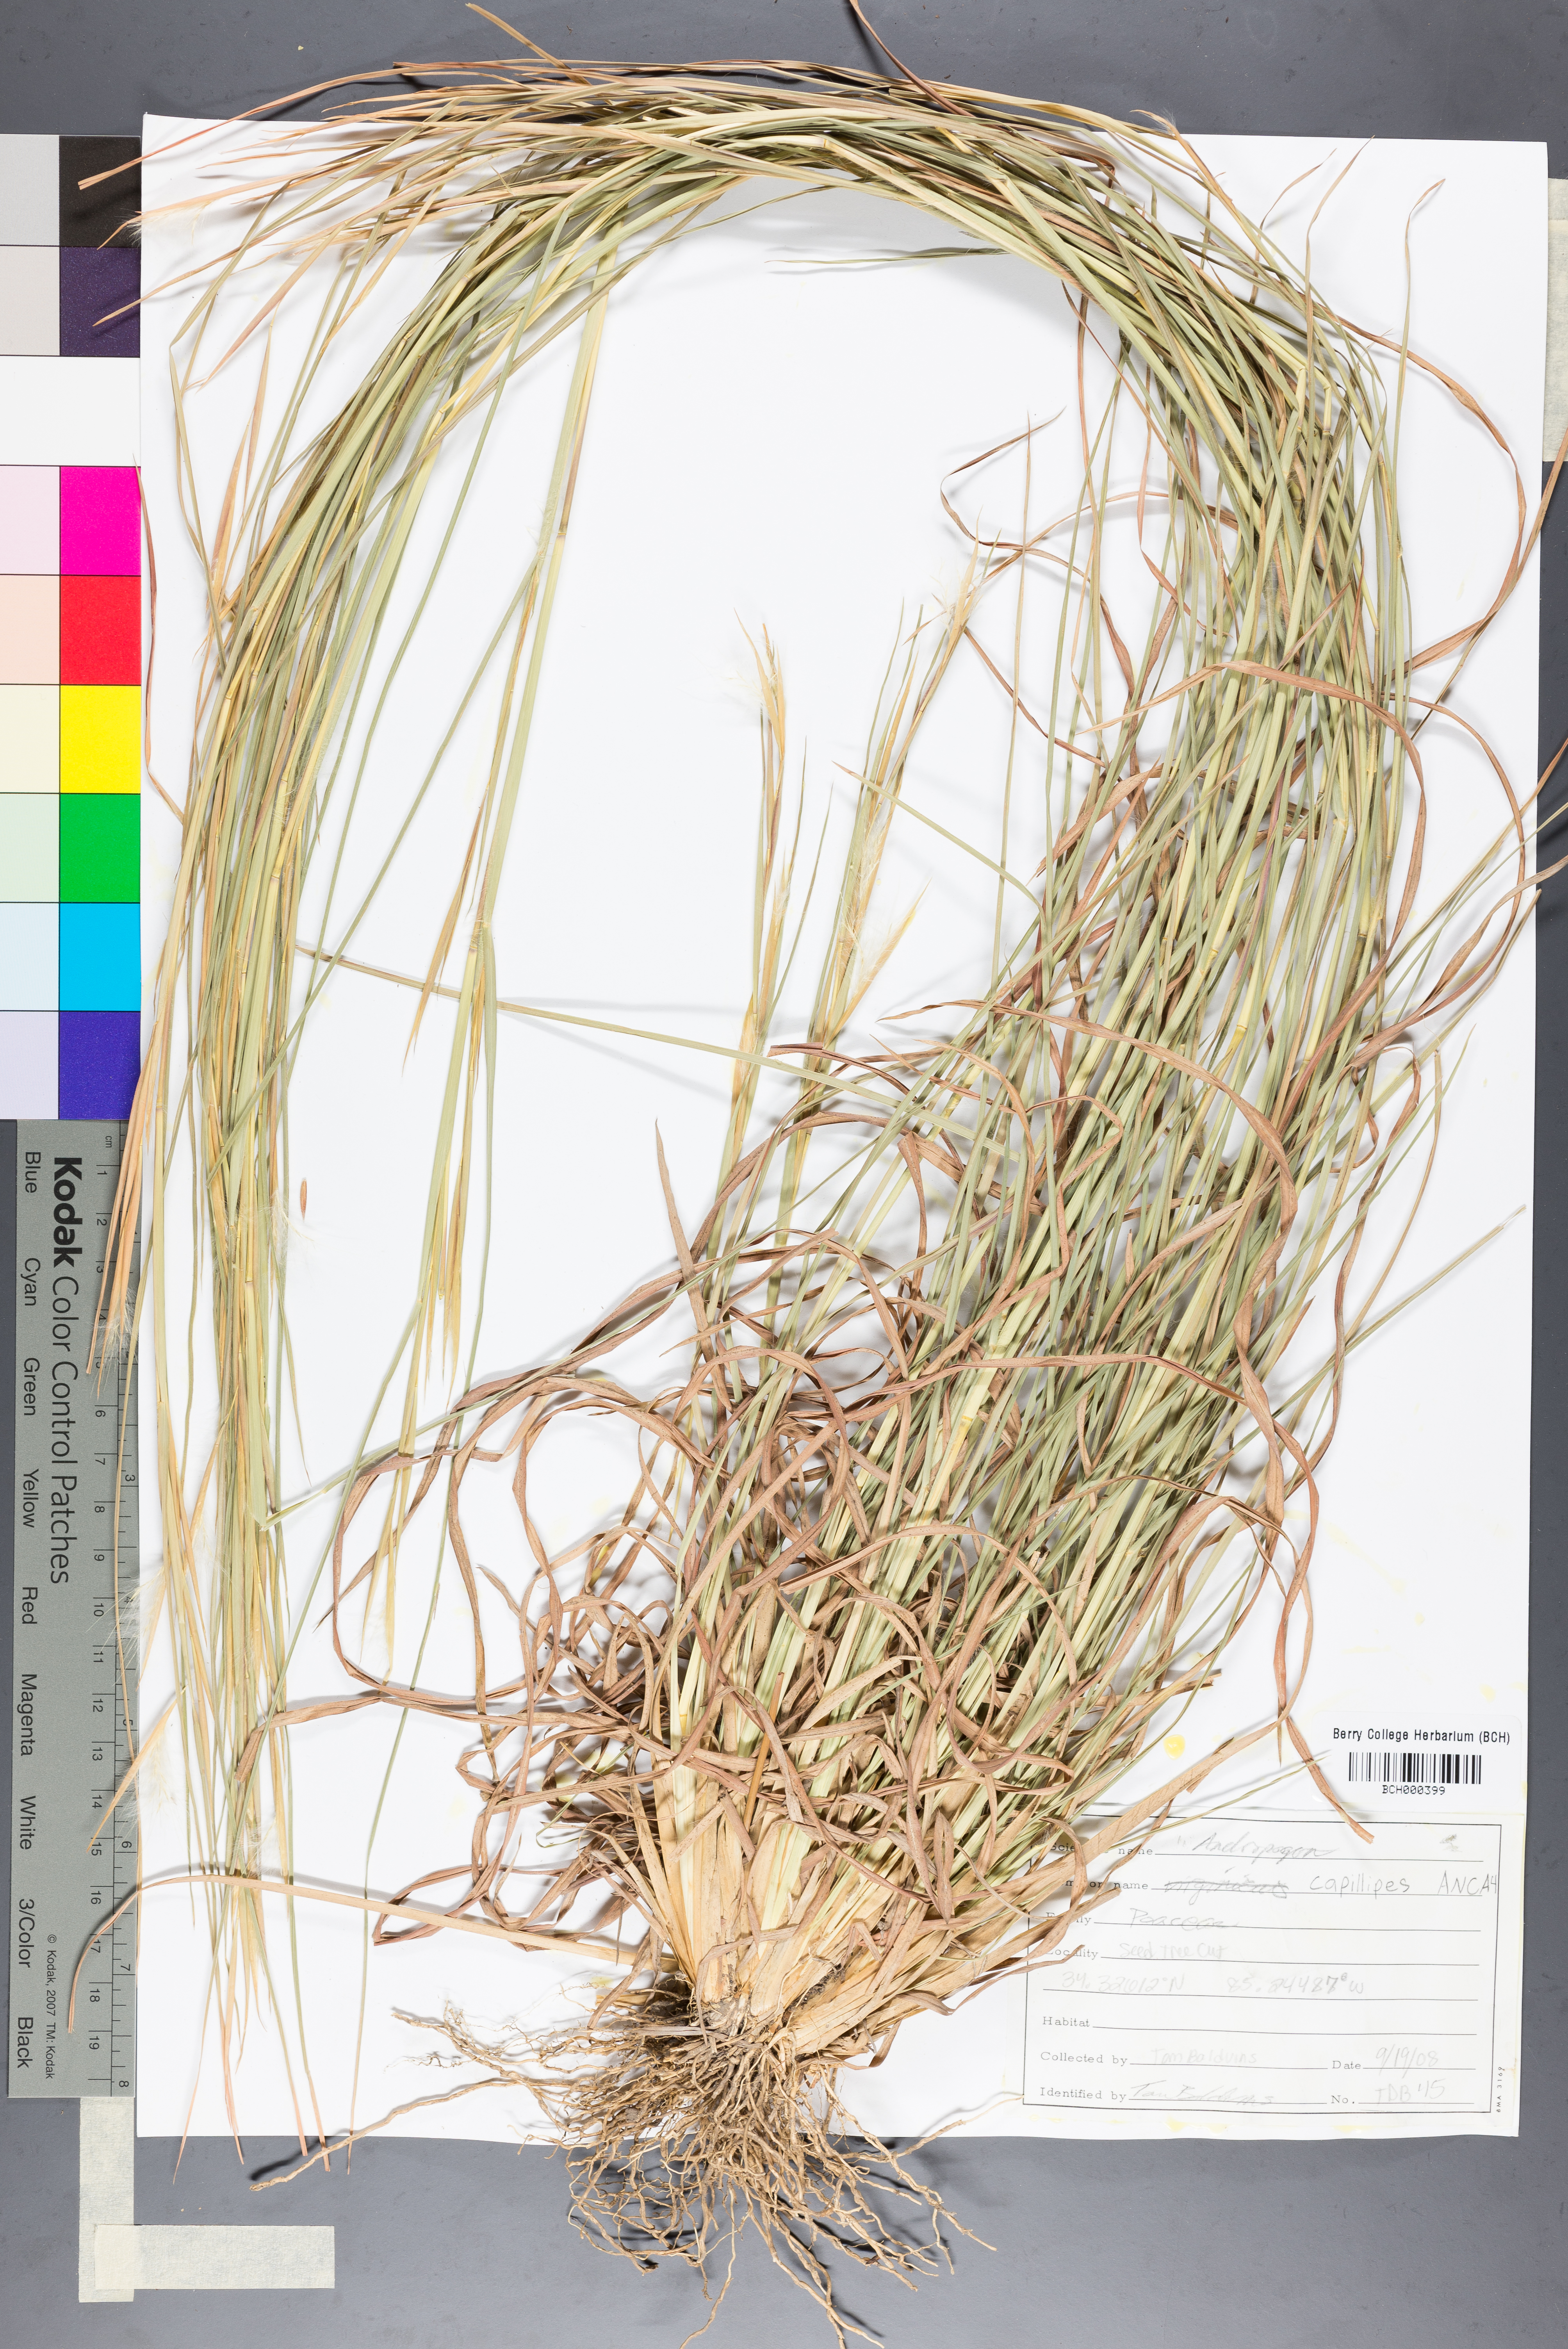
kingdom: Plantae
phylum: Tracheophyta
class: Liliopsida
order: Poales
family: Poaceae
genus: Andropogon
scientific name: Andropogon capillipes
